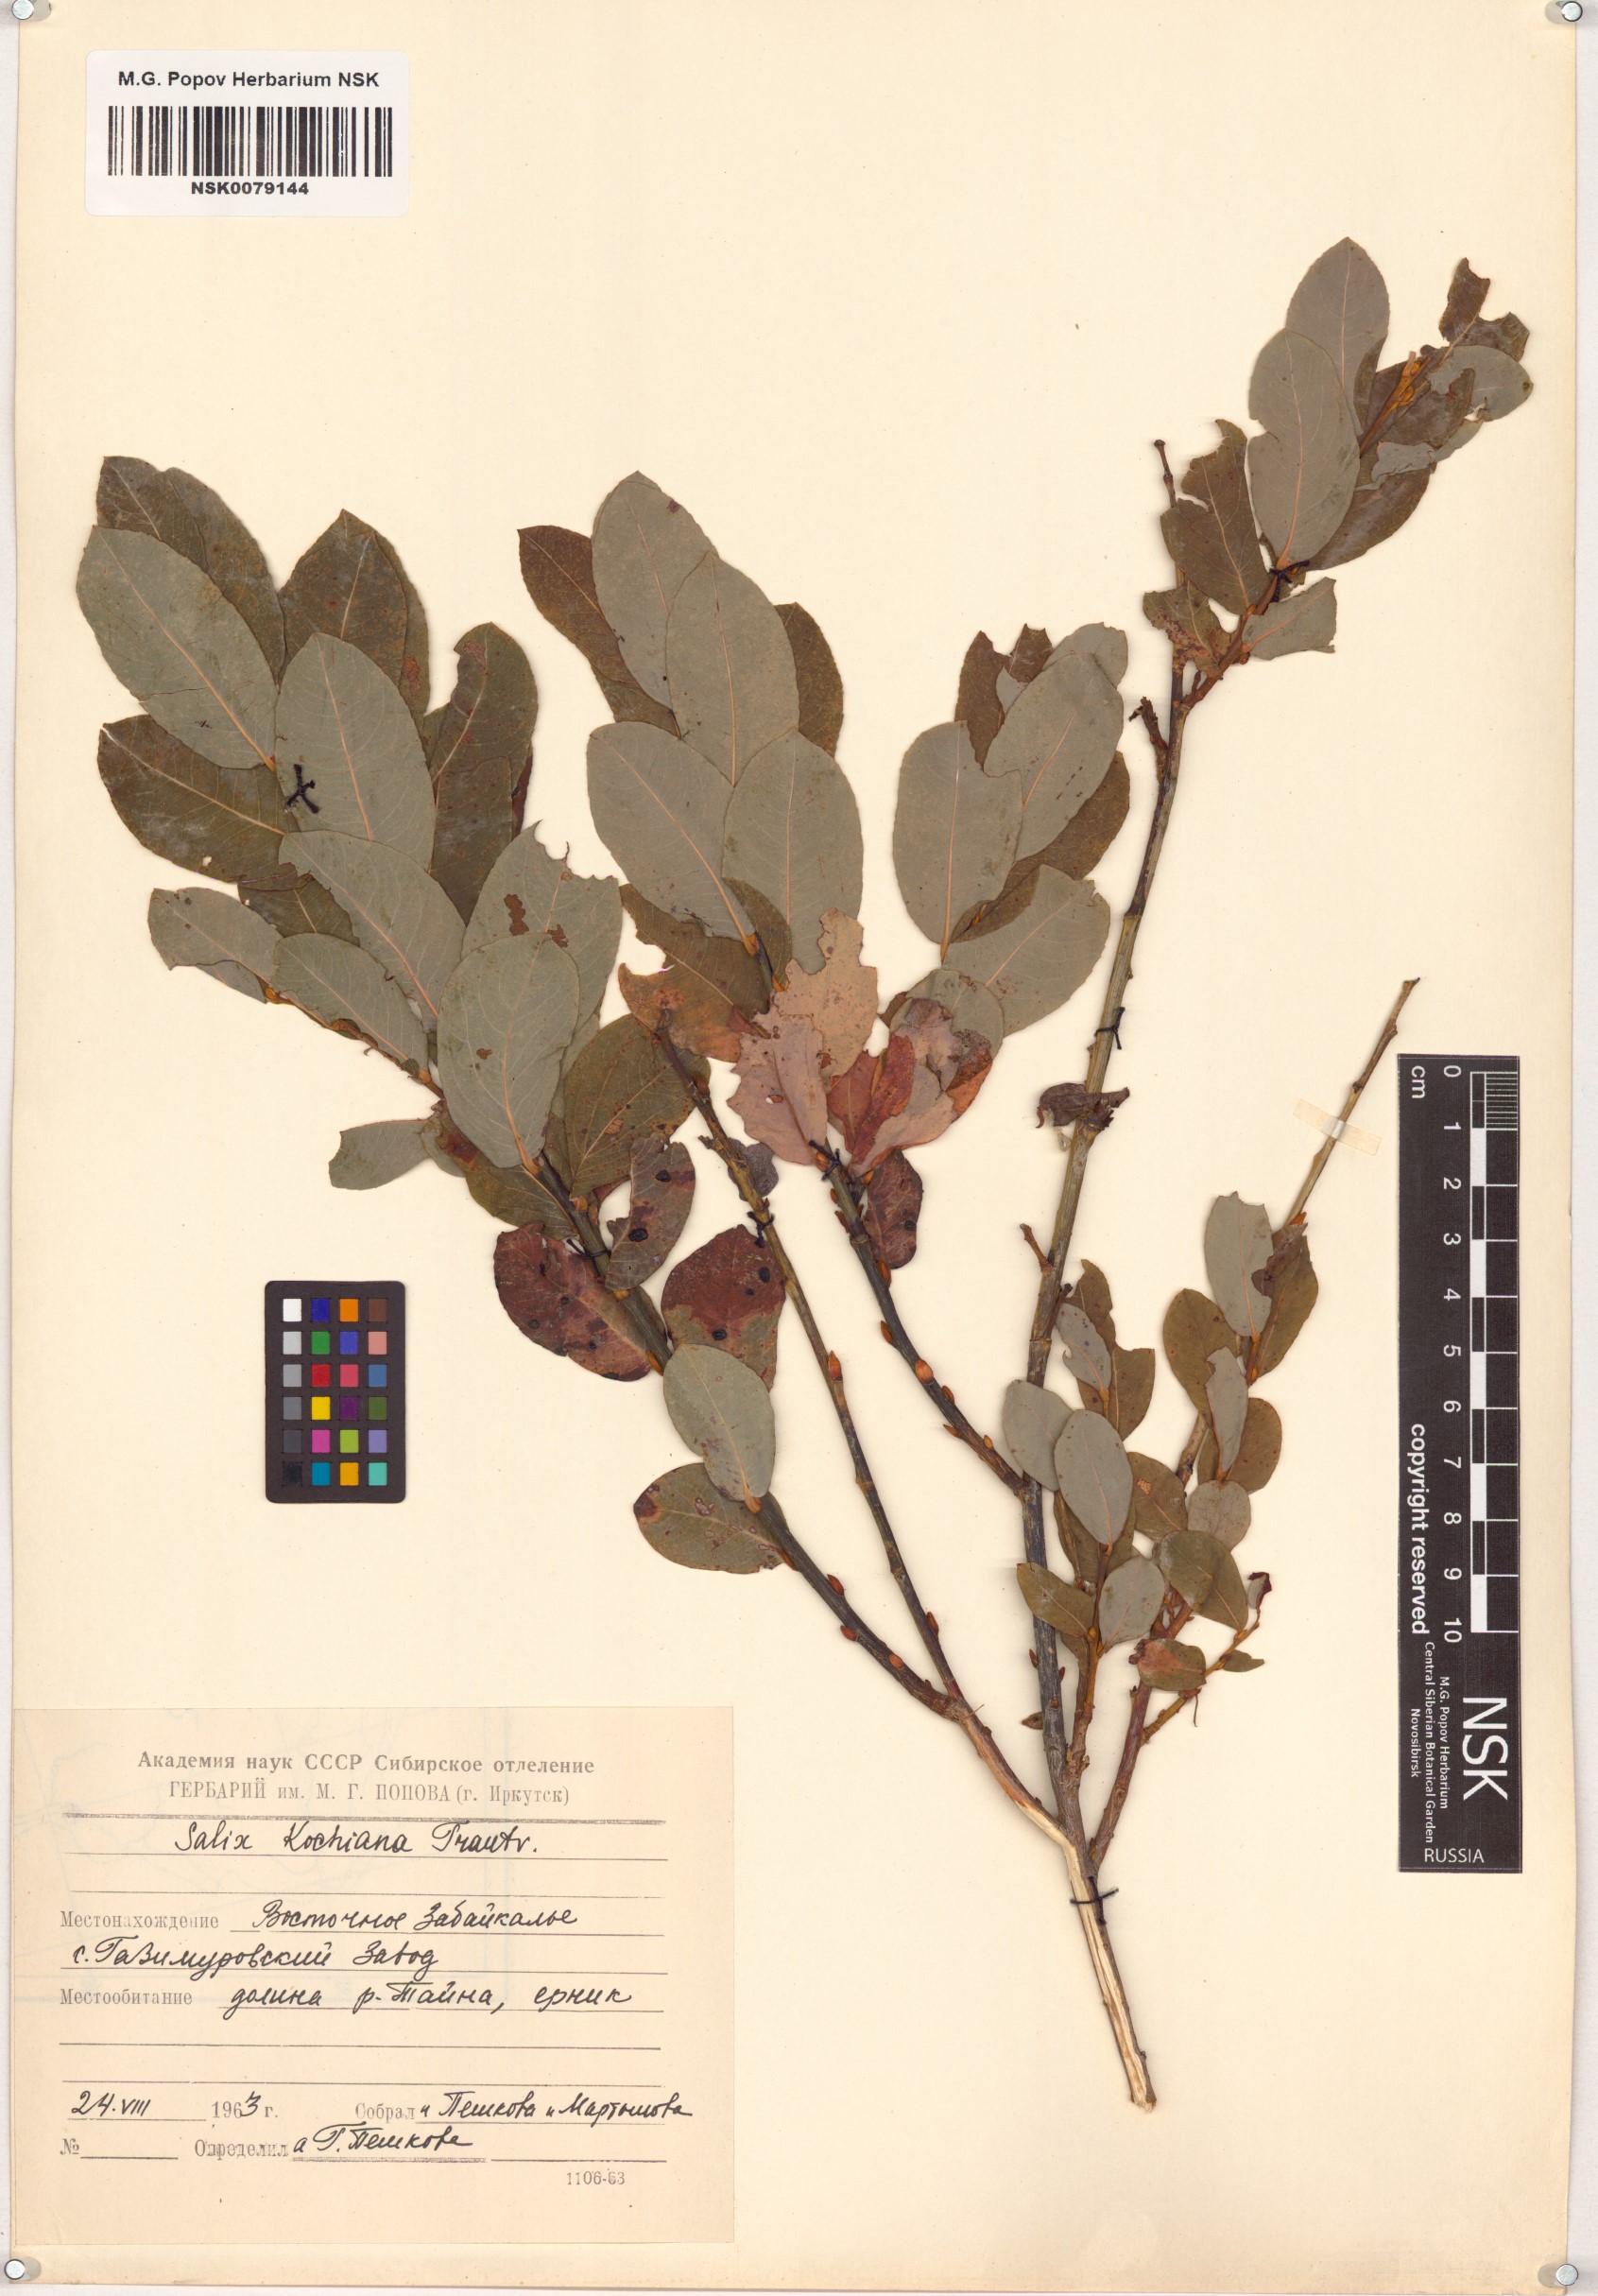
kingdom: Plantae
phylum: Tracheophyta
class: Magnoliopsida
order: Malpighiales
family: Salicaceae
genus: Salix
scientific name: Salix kochiana
